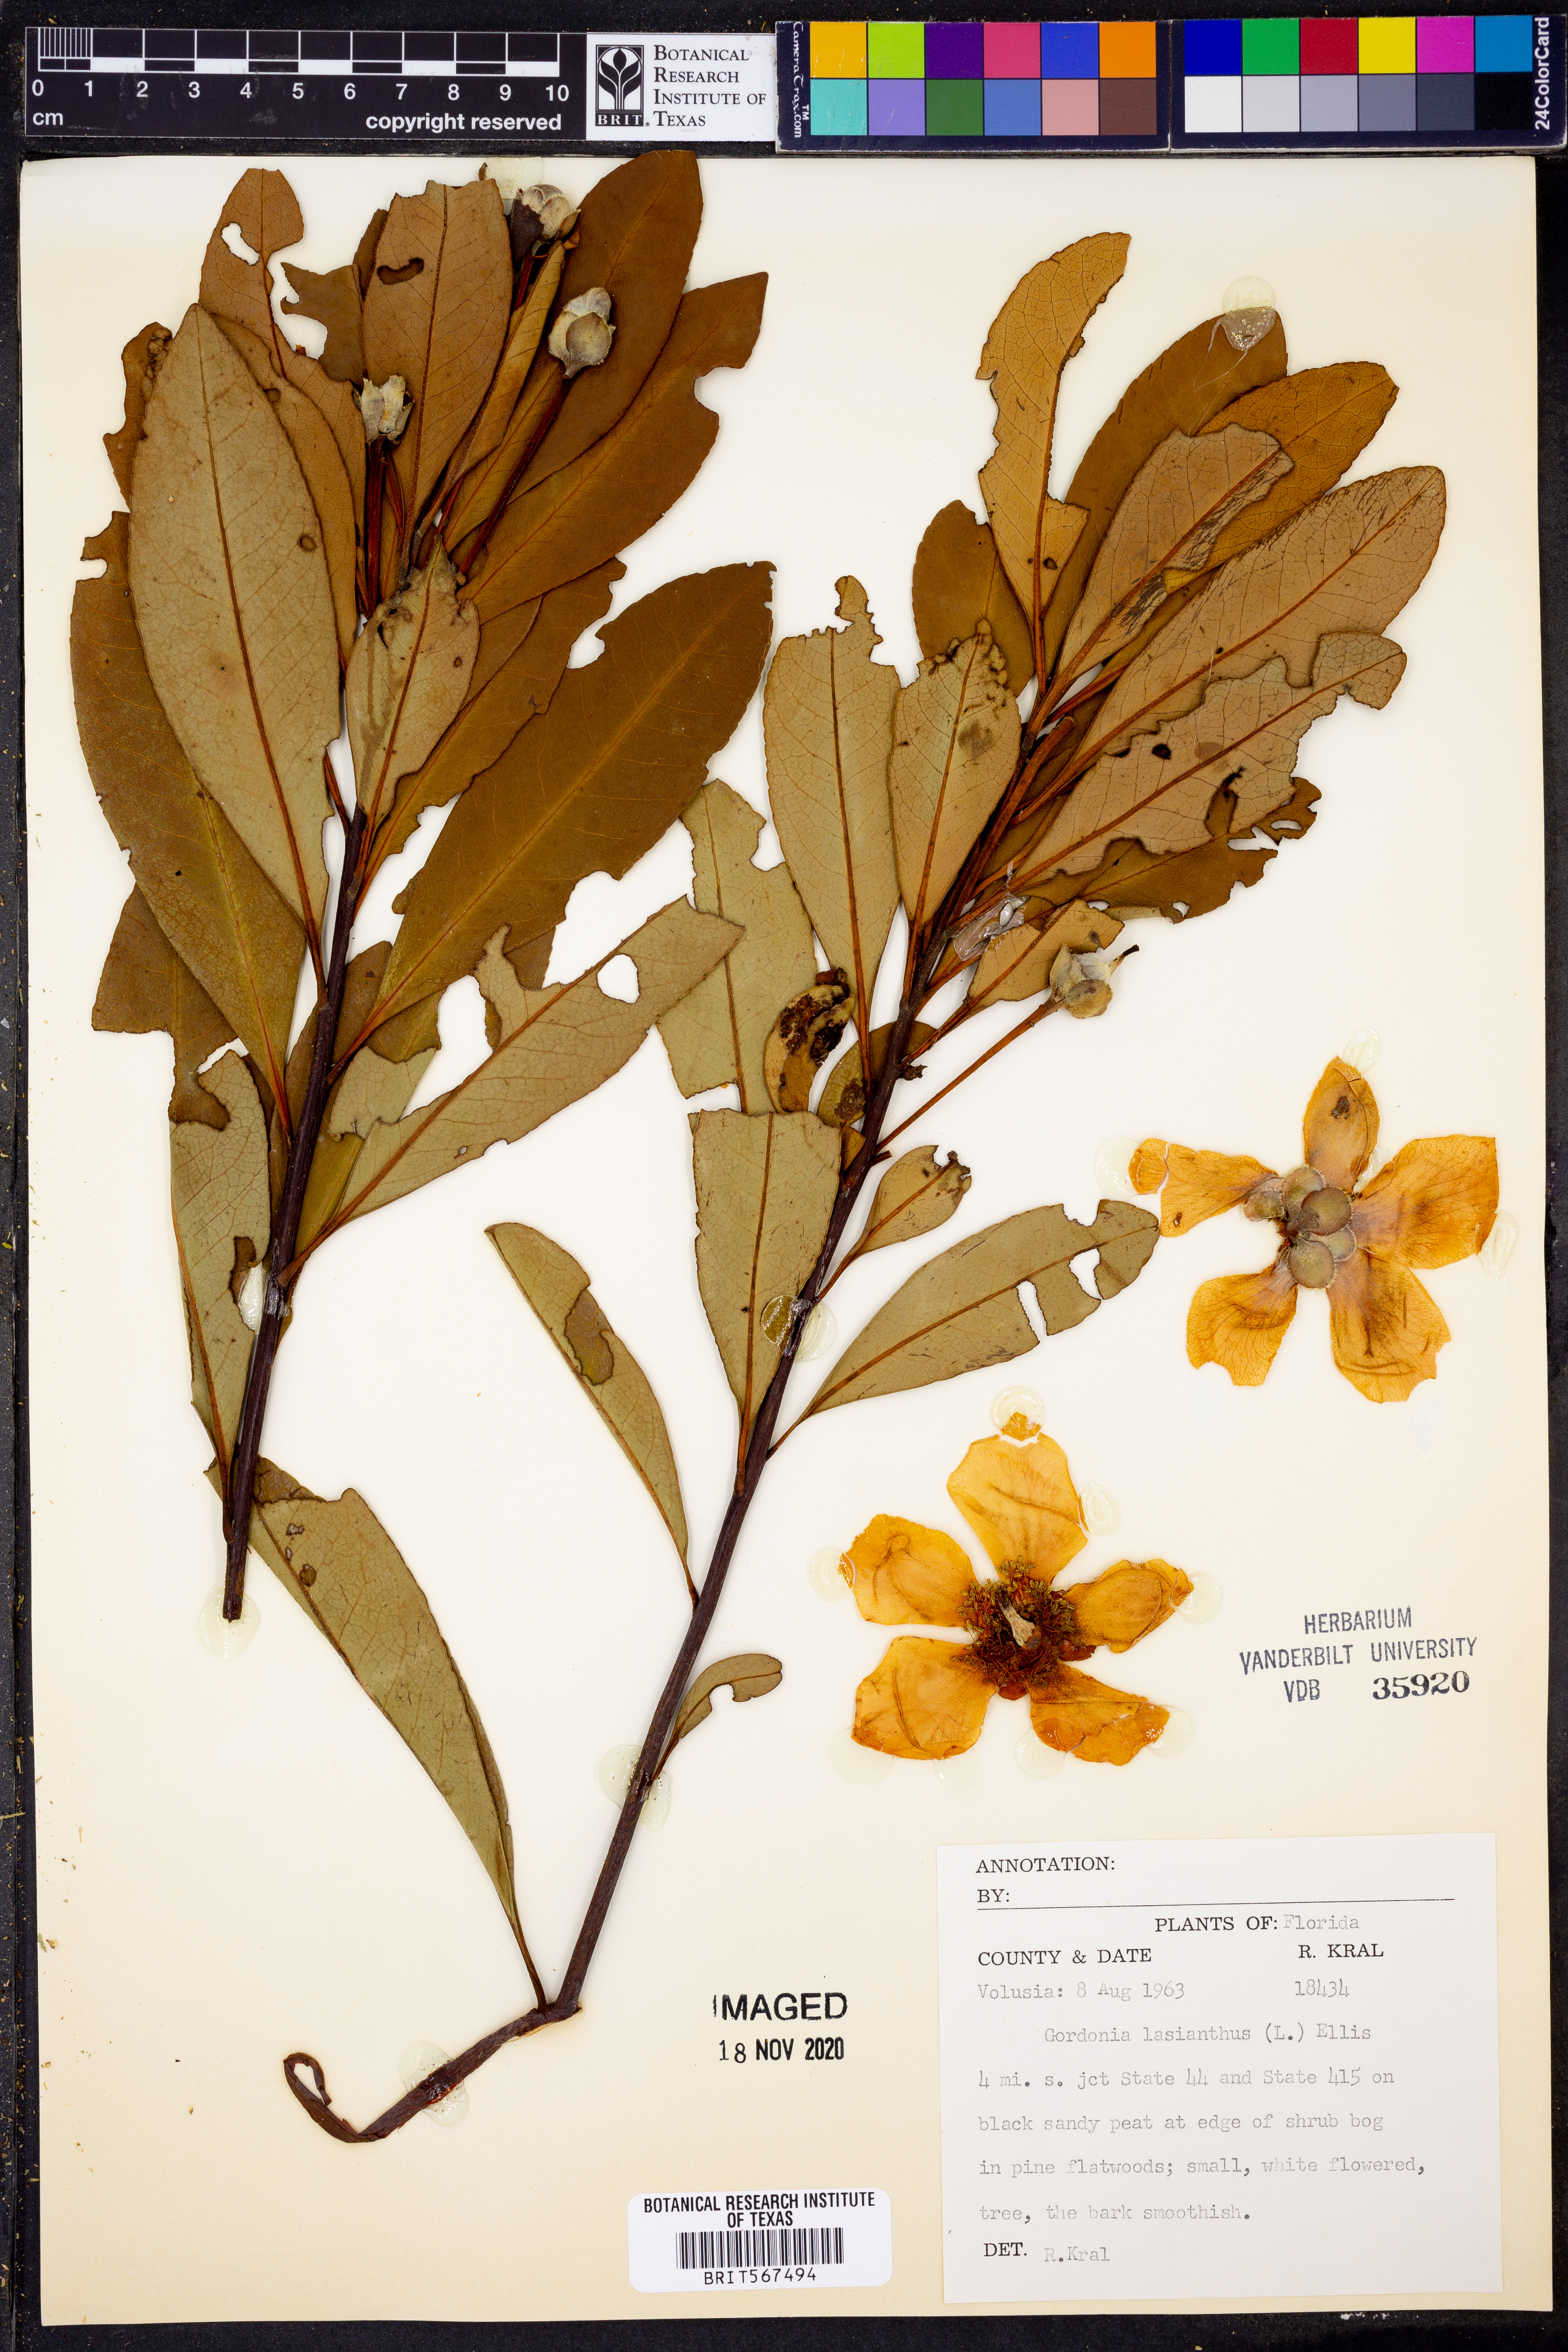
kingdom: Plantae
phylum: Tracheophyta
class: Magnoliopsida
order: Ericales
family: Theaceae
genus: Gordonia
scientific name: Gordonia lasianthus
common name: Loblolly bay
